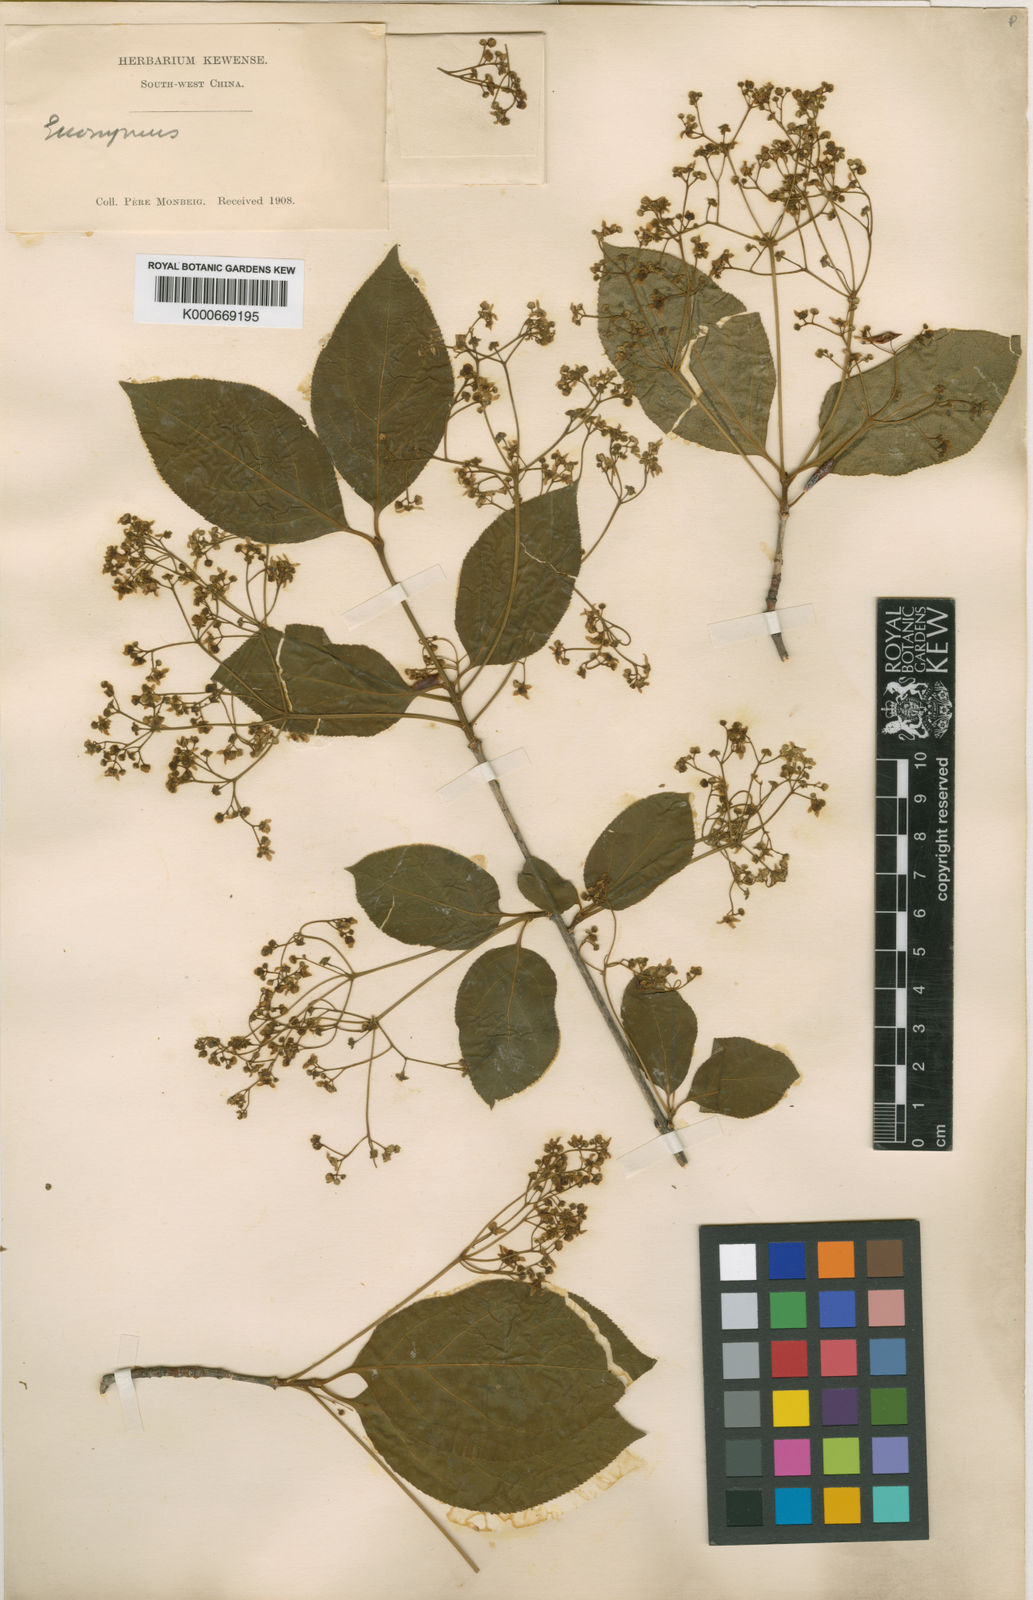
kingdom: Plantae
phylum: Tracheophyta
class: Magnoliopsida
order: Celastrales
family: Celastraceae
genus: Euonymus
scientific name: Euonymus sanguineus
